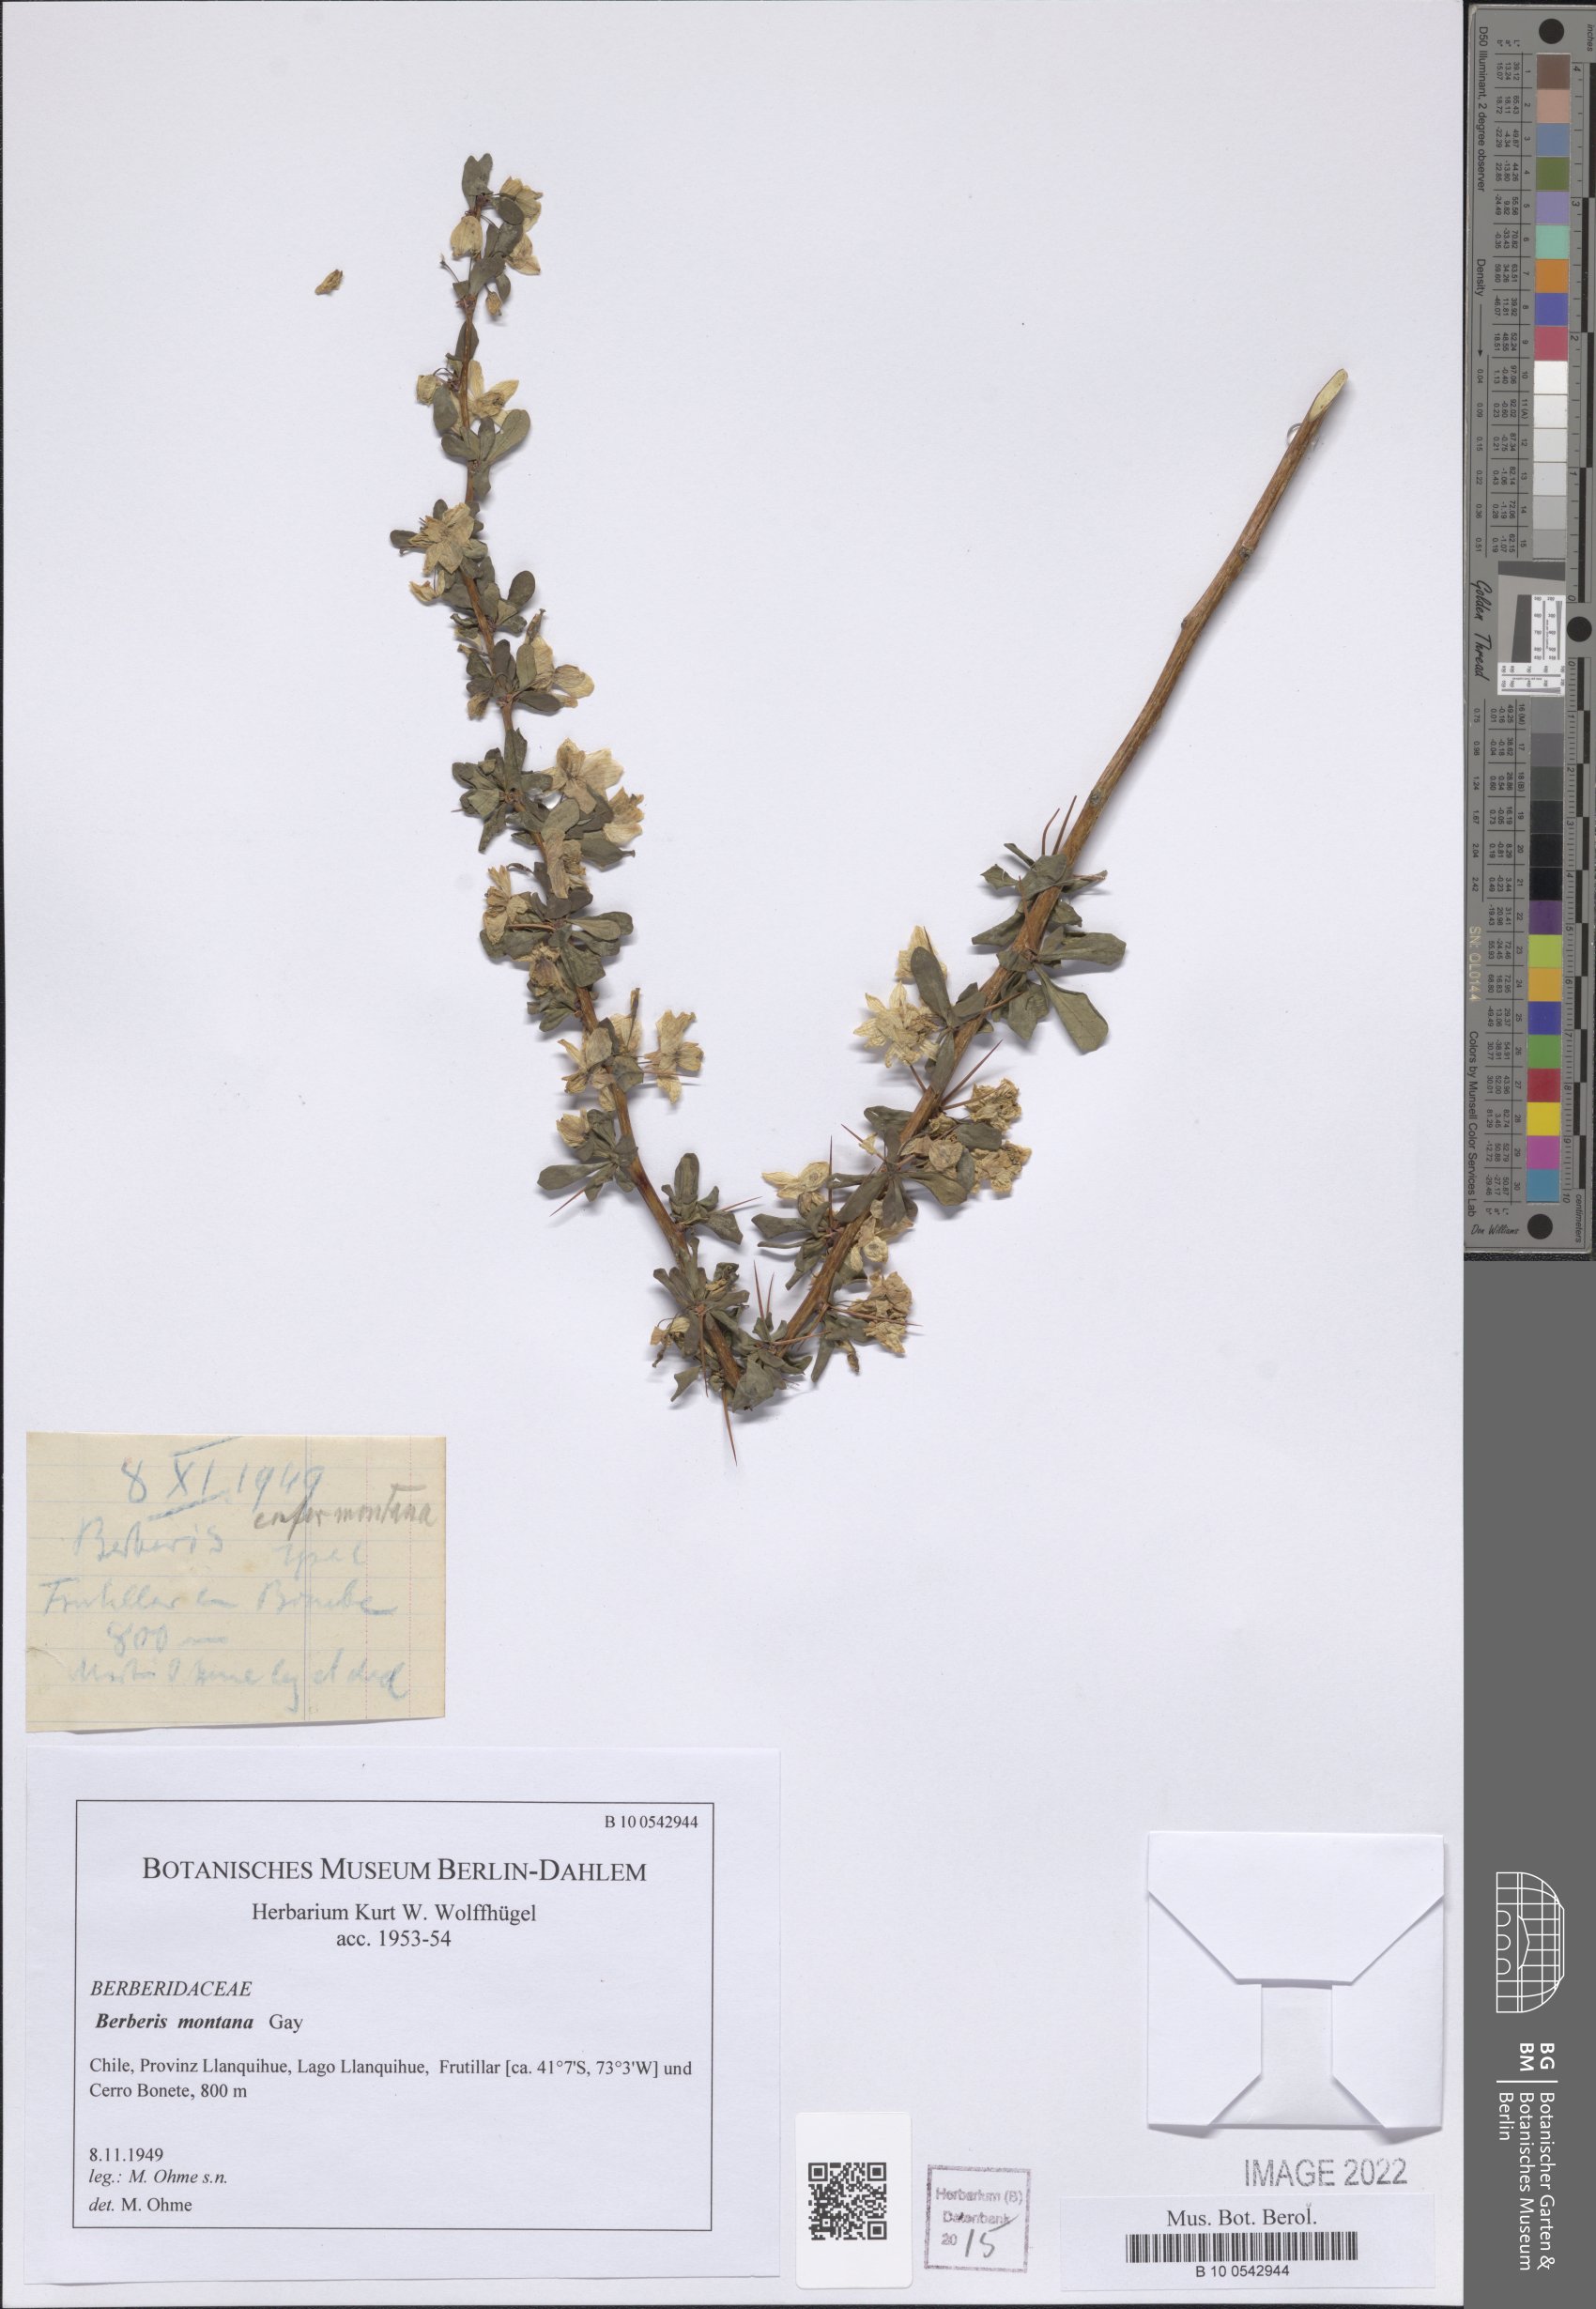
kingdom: Plantae
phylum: Tracheophyta
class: Magnoliopsida
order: Ranunculales
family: Berberidaceae
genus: Berberis
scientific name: Berberis montana
